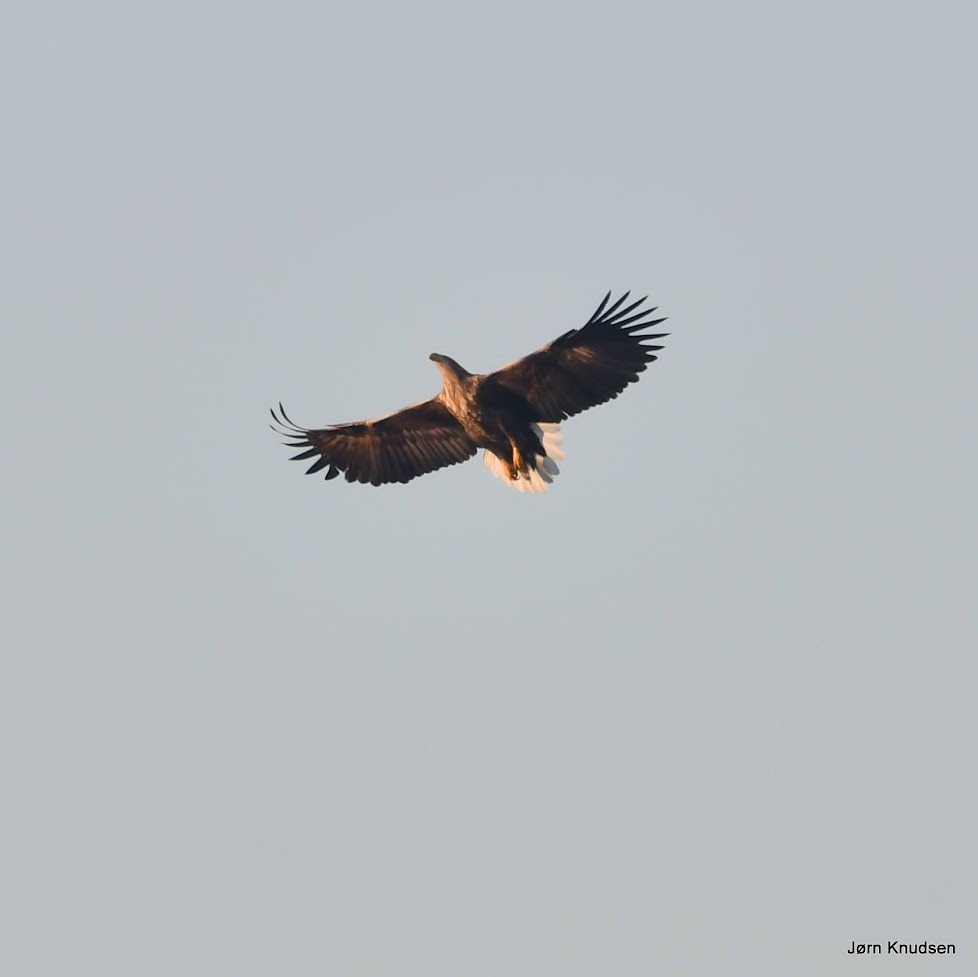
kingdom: Animalia
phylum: Chordata
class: Aves
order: Accipitriformes
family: Accipitridae
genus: Haliaeetus
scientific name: Haliaeetus albicilla
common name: Havørn
